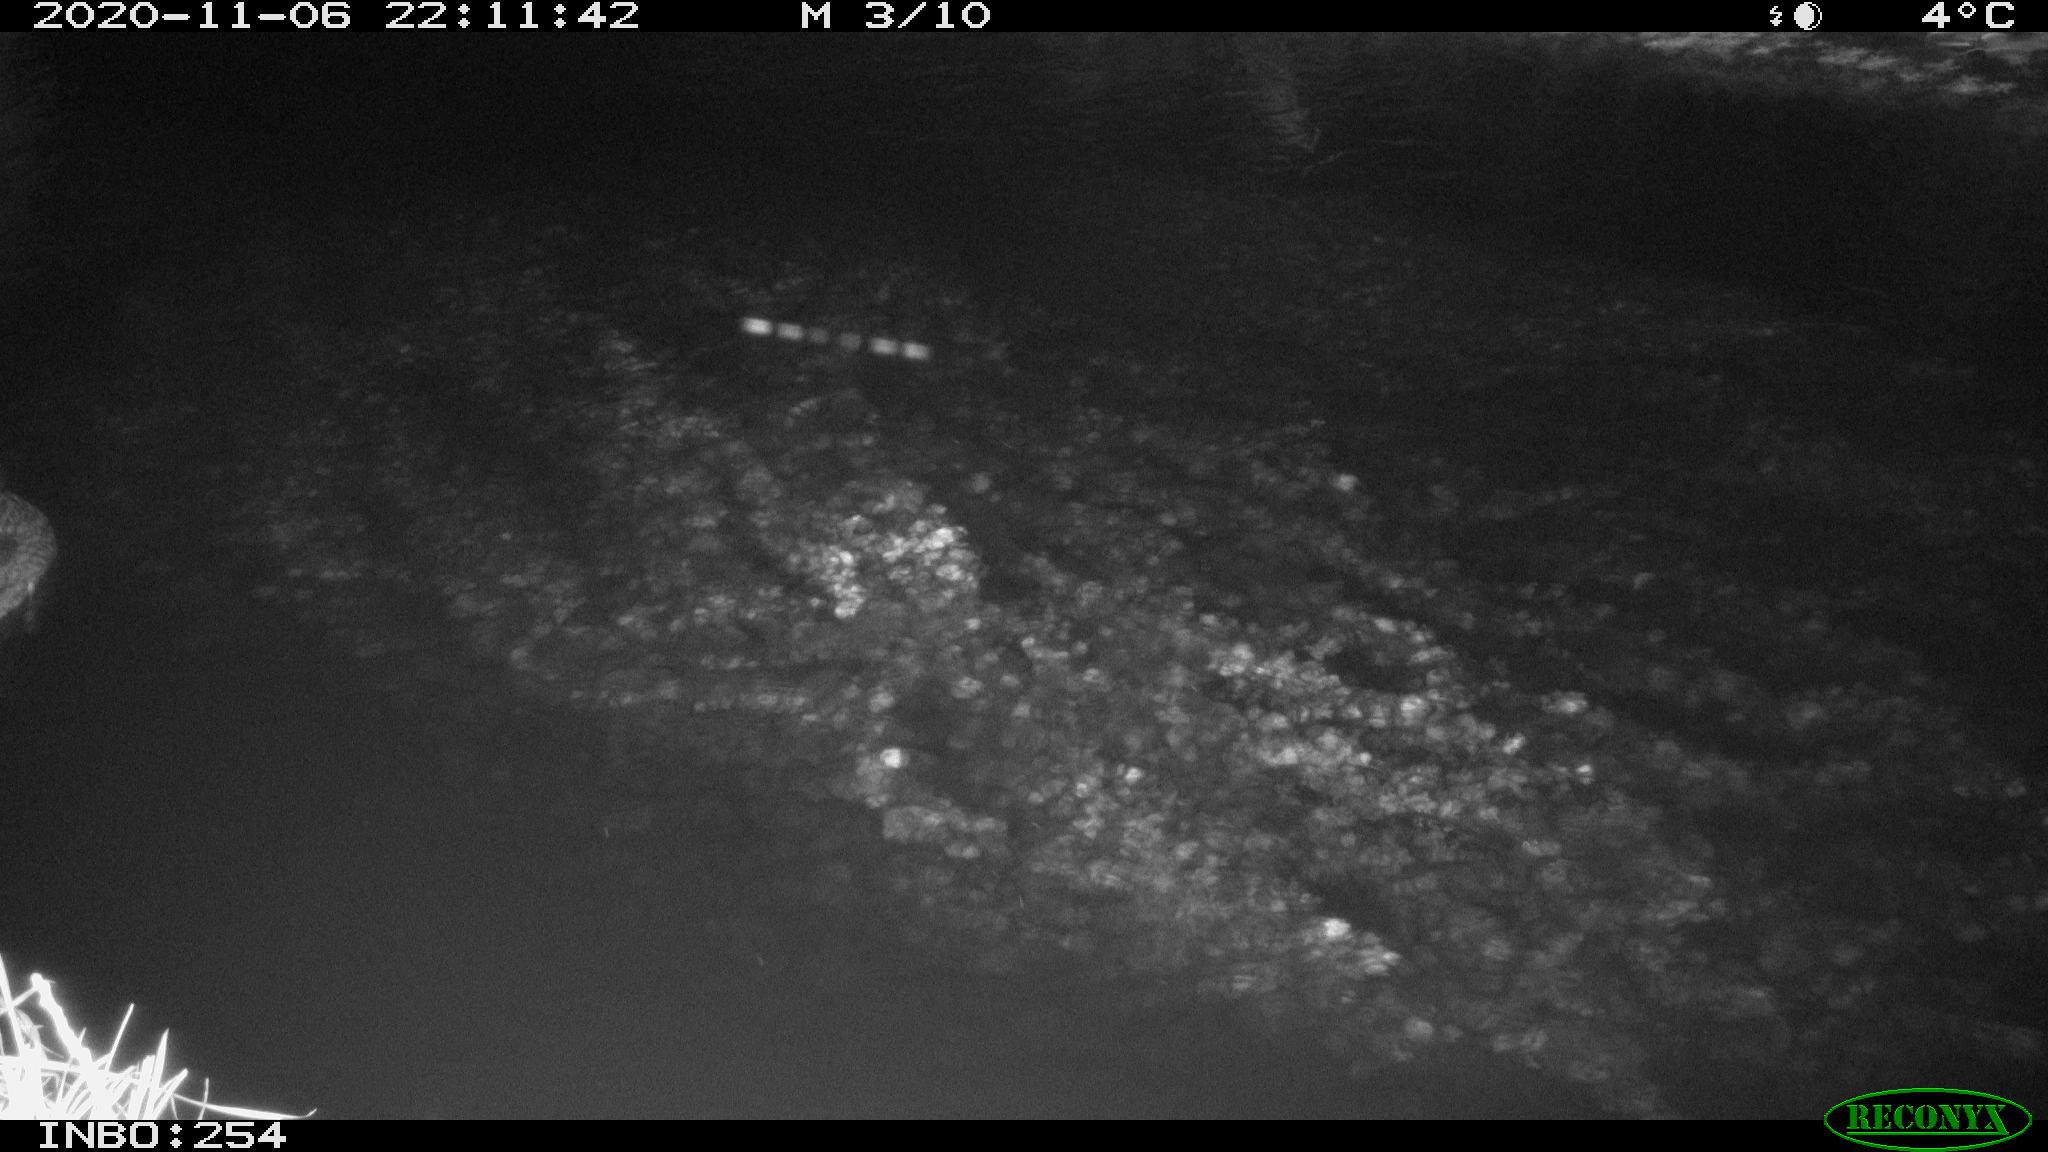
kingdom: Animalia
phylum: Chordata
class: Aves
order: Anseriformes
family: Anatidae
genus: Anas
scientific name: Anas platyrhynchos
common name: Mallard
